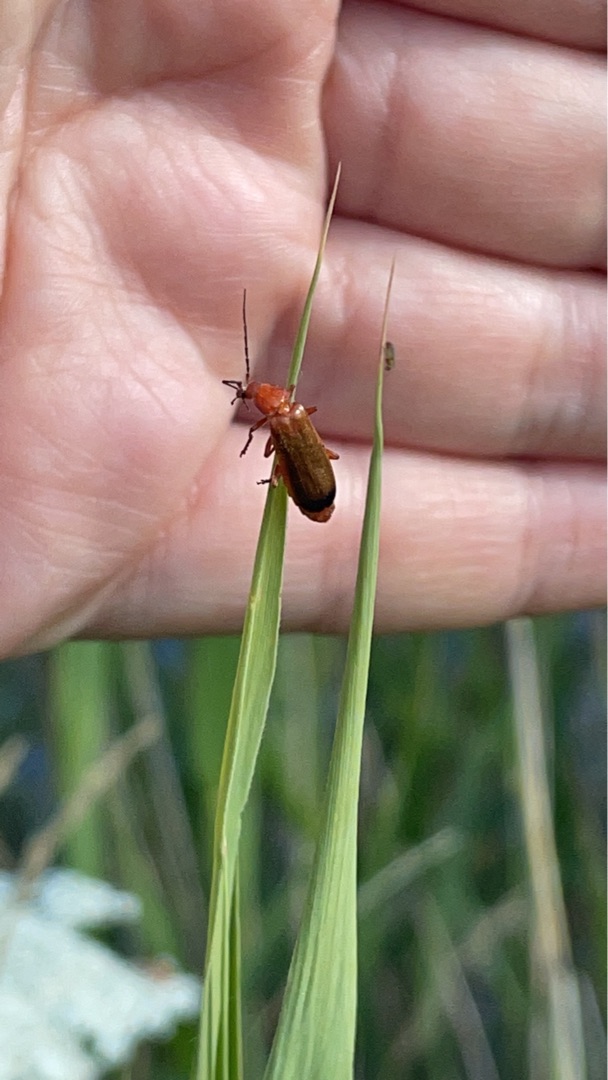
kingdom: Animalia
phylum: Arthropoda
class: Insecta
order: Coleoptera
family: Cantharidae
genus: Rhagonycha
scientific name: Rhagonycha fulva
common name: Præstebille
